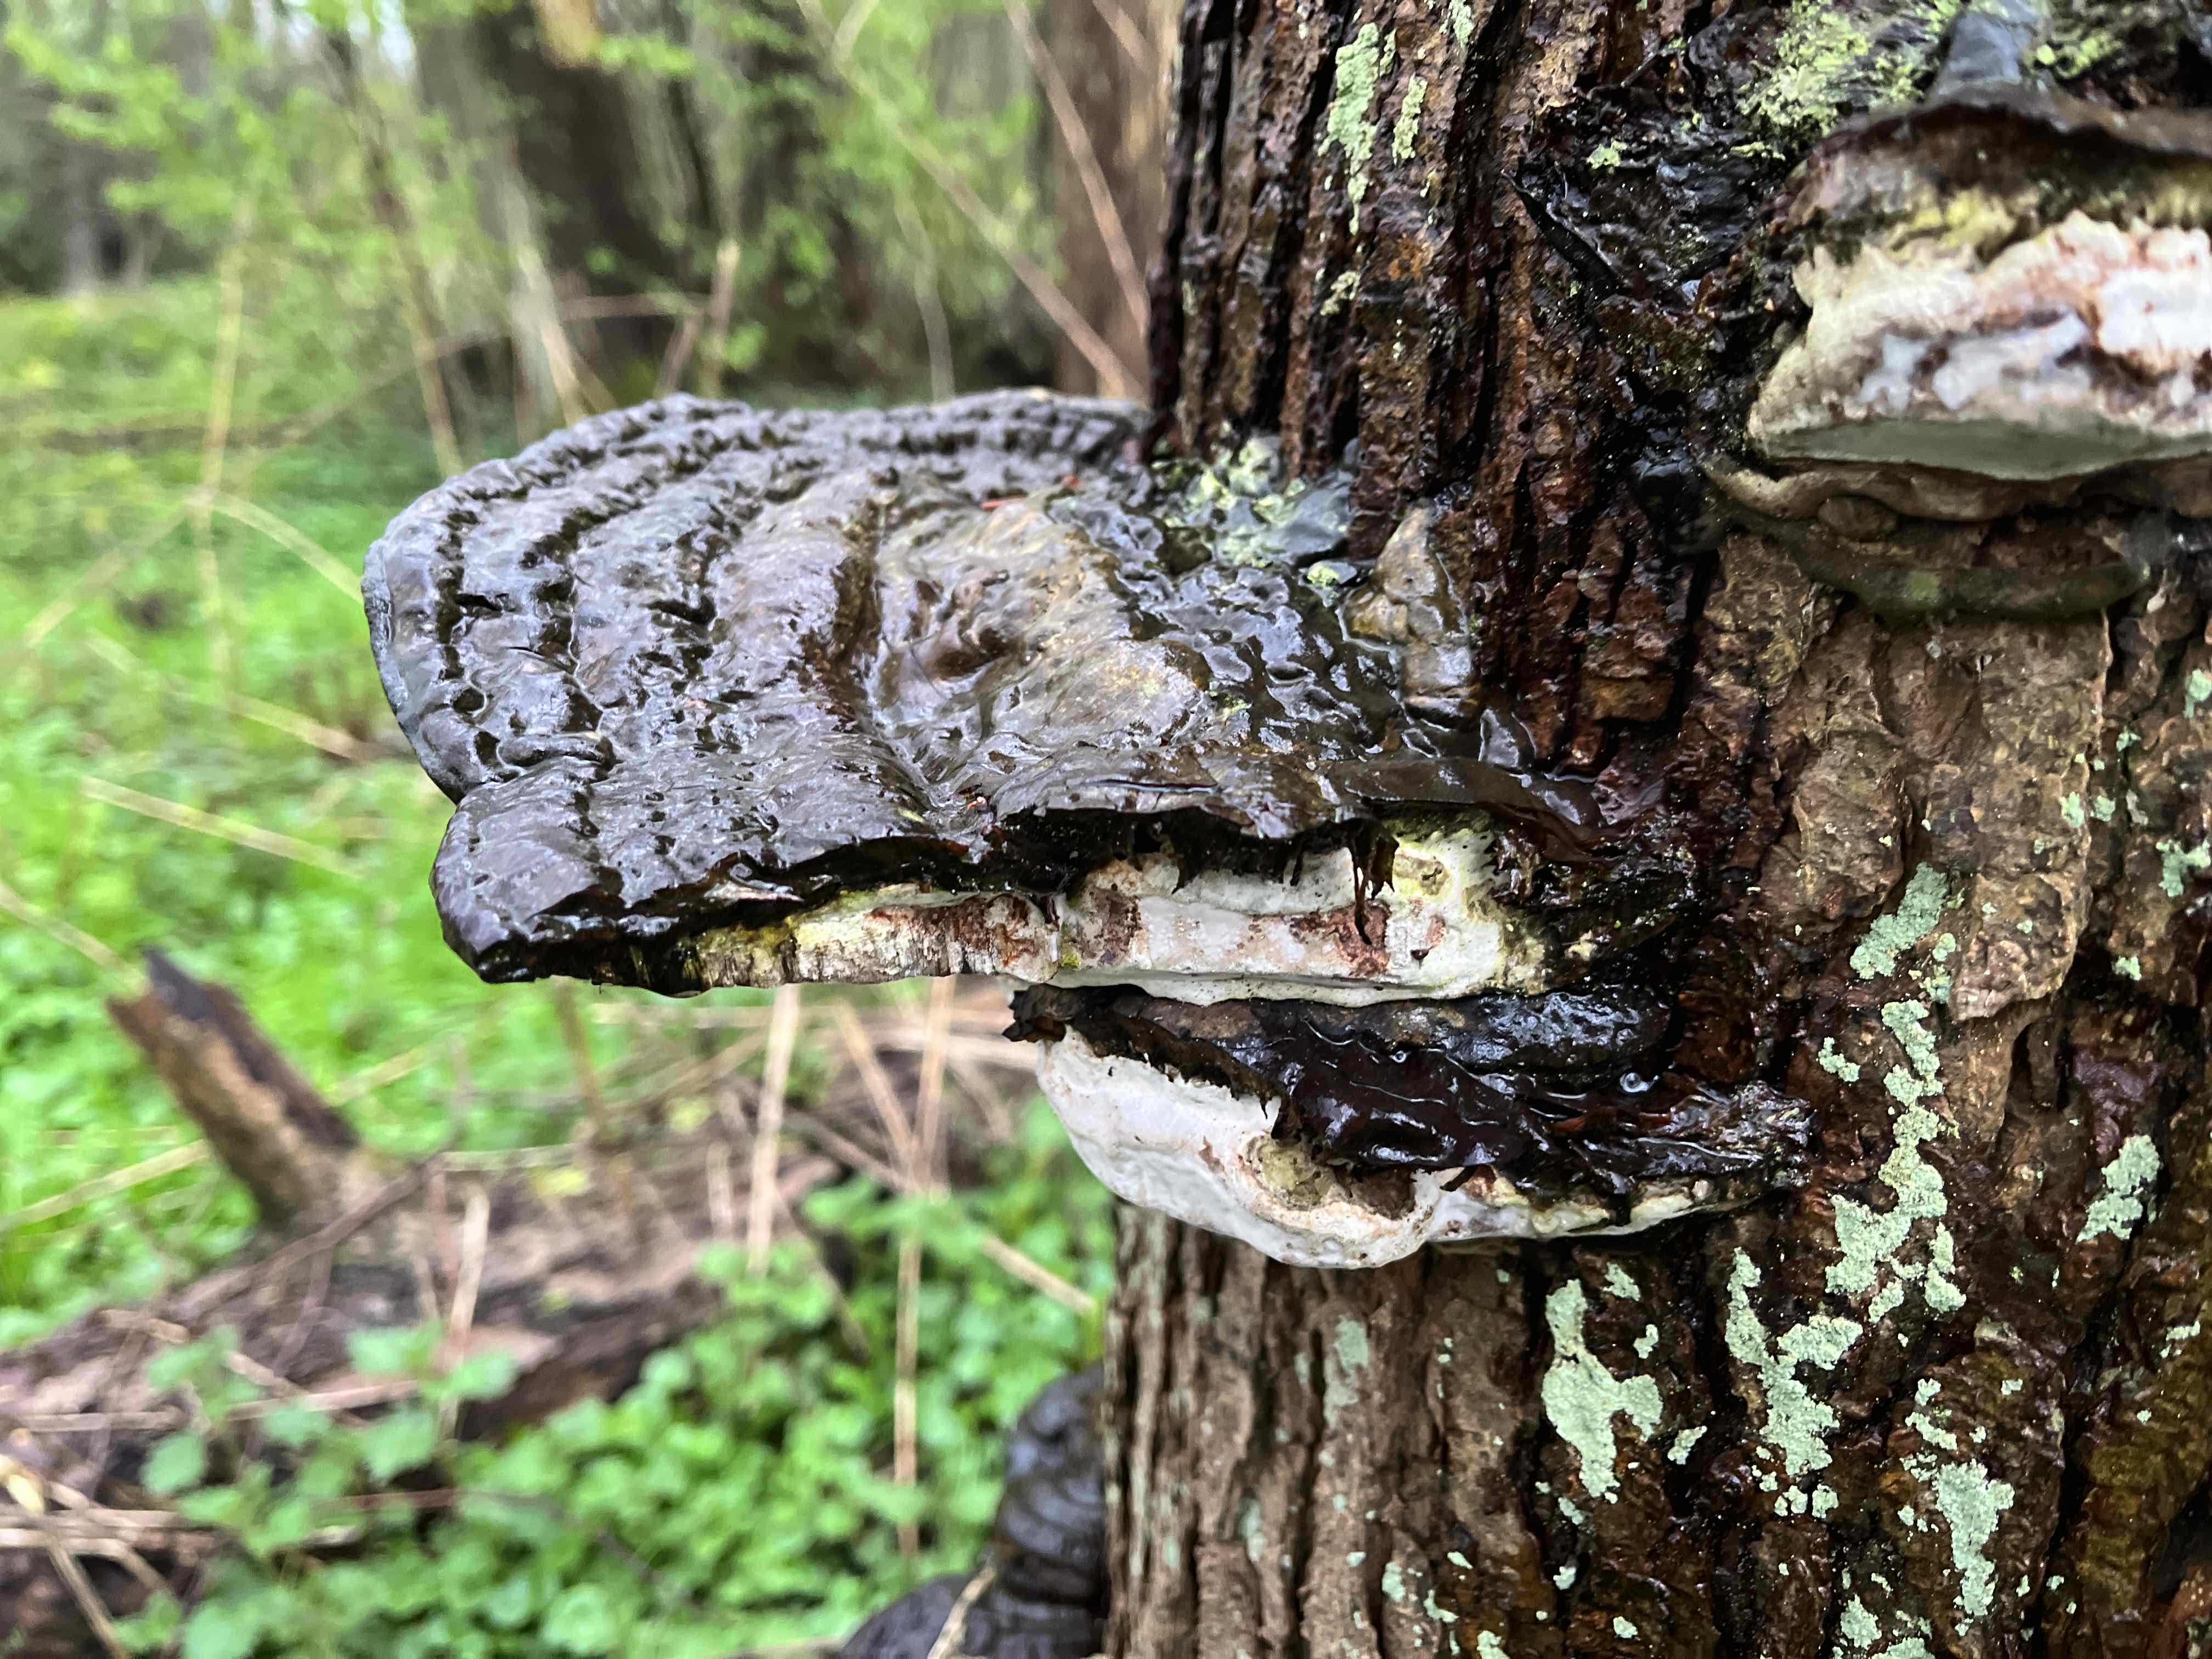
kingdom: Fungi
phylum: Basidiomycota
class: Agaricomycetes
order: Polyporales
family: Polyporaceae
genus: Ganoderma
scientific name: Ganoderma applanatum
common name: flad lakporesvamp
